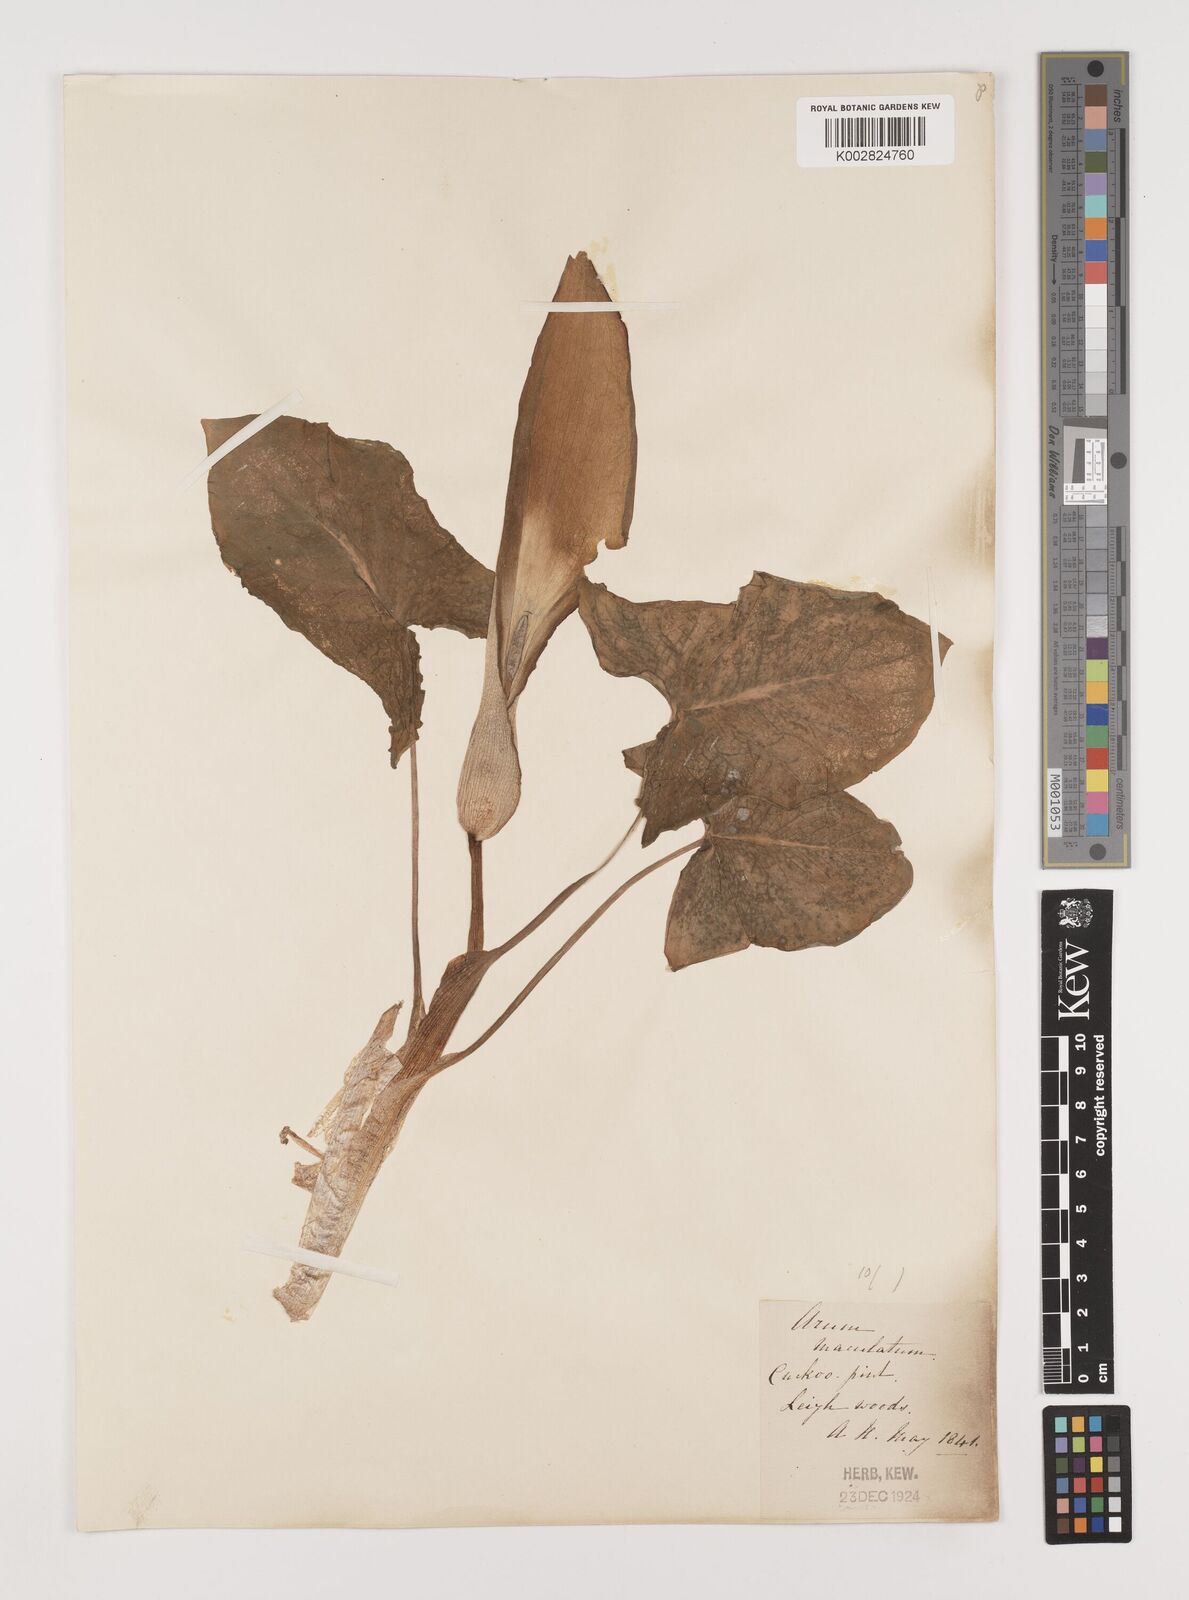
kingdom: Plantae
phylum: Tracheophyta
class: Liliopsida
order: Alismatales
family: Araceae
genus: Arum
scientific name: Arum maculatum
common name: Lords-and-ladies
